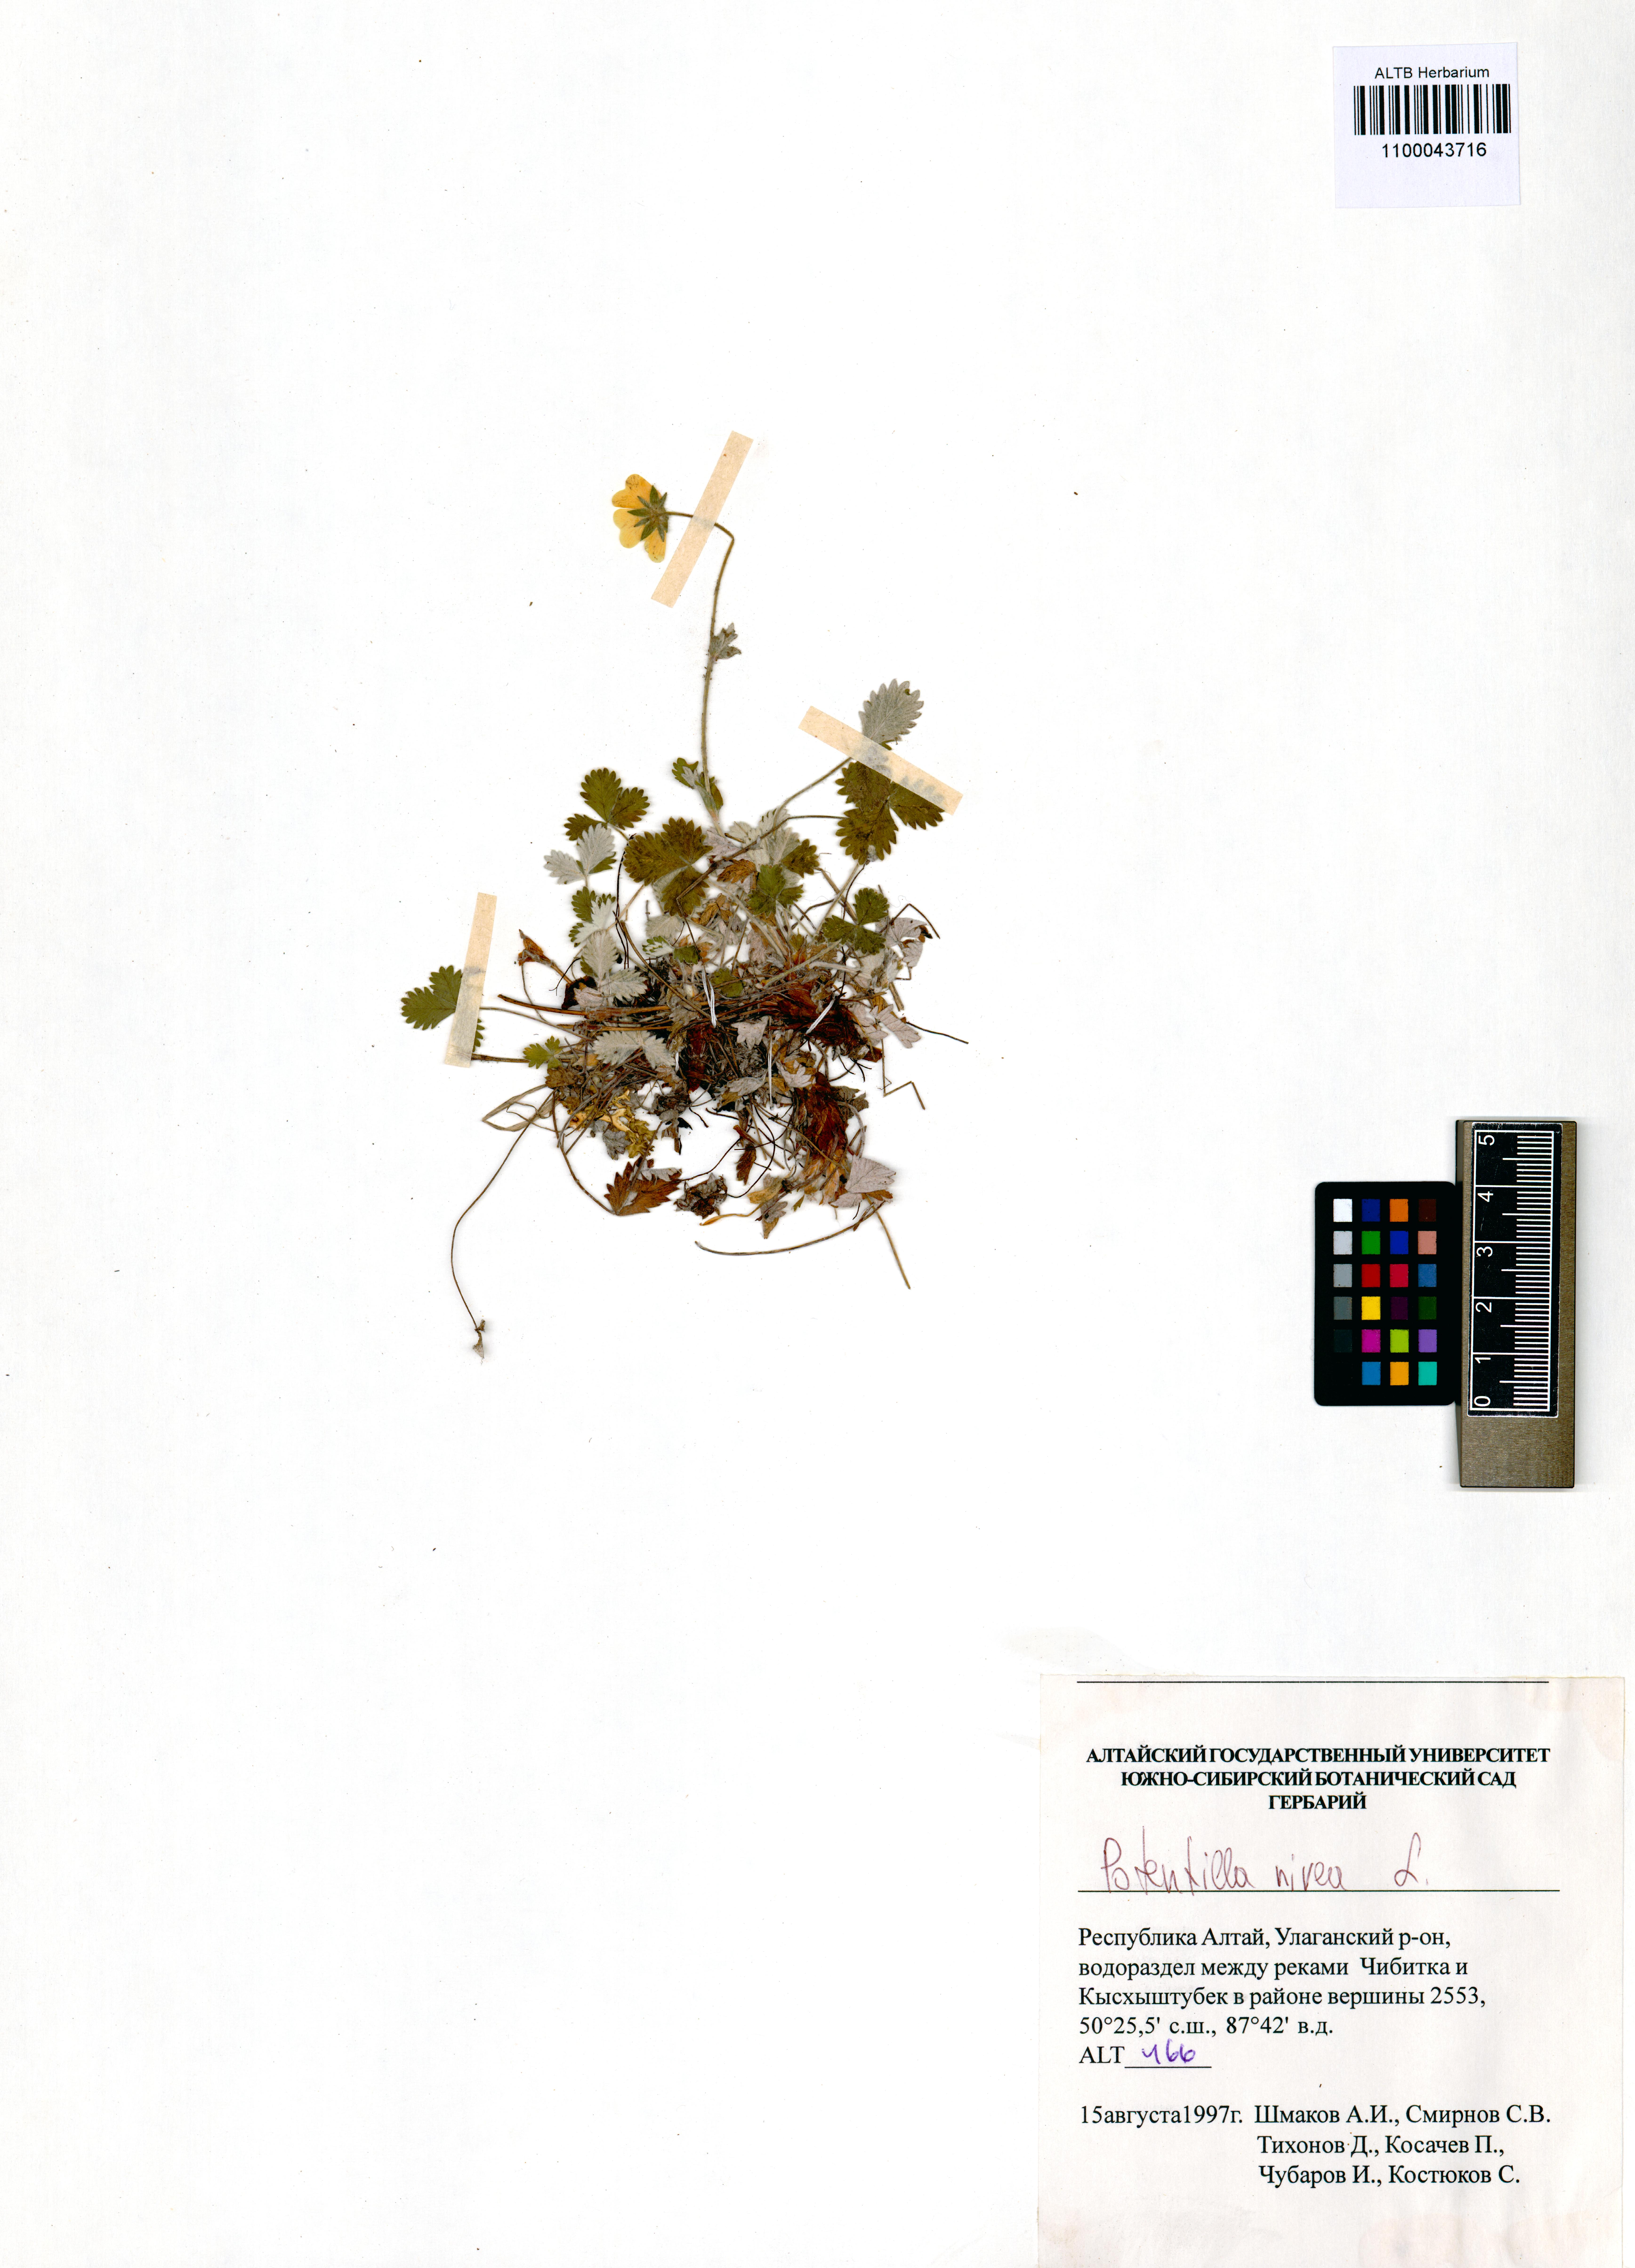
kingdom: Plantae
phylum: Tracheophyta
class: Magnoliopsida
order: Rosales
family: Rosaceae
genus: Potentilla
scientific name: Potentilla nivea
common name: Snow cinquefoil
